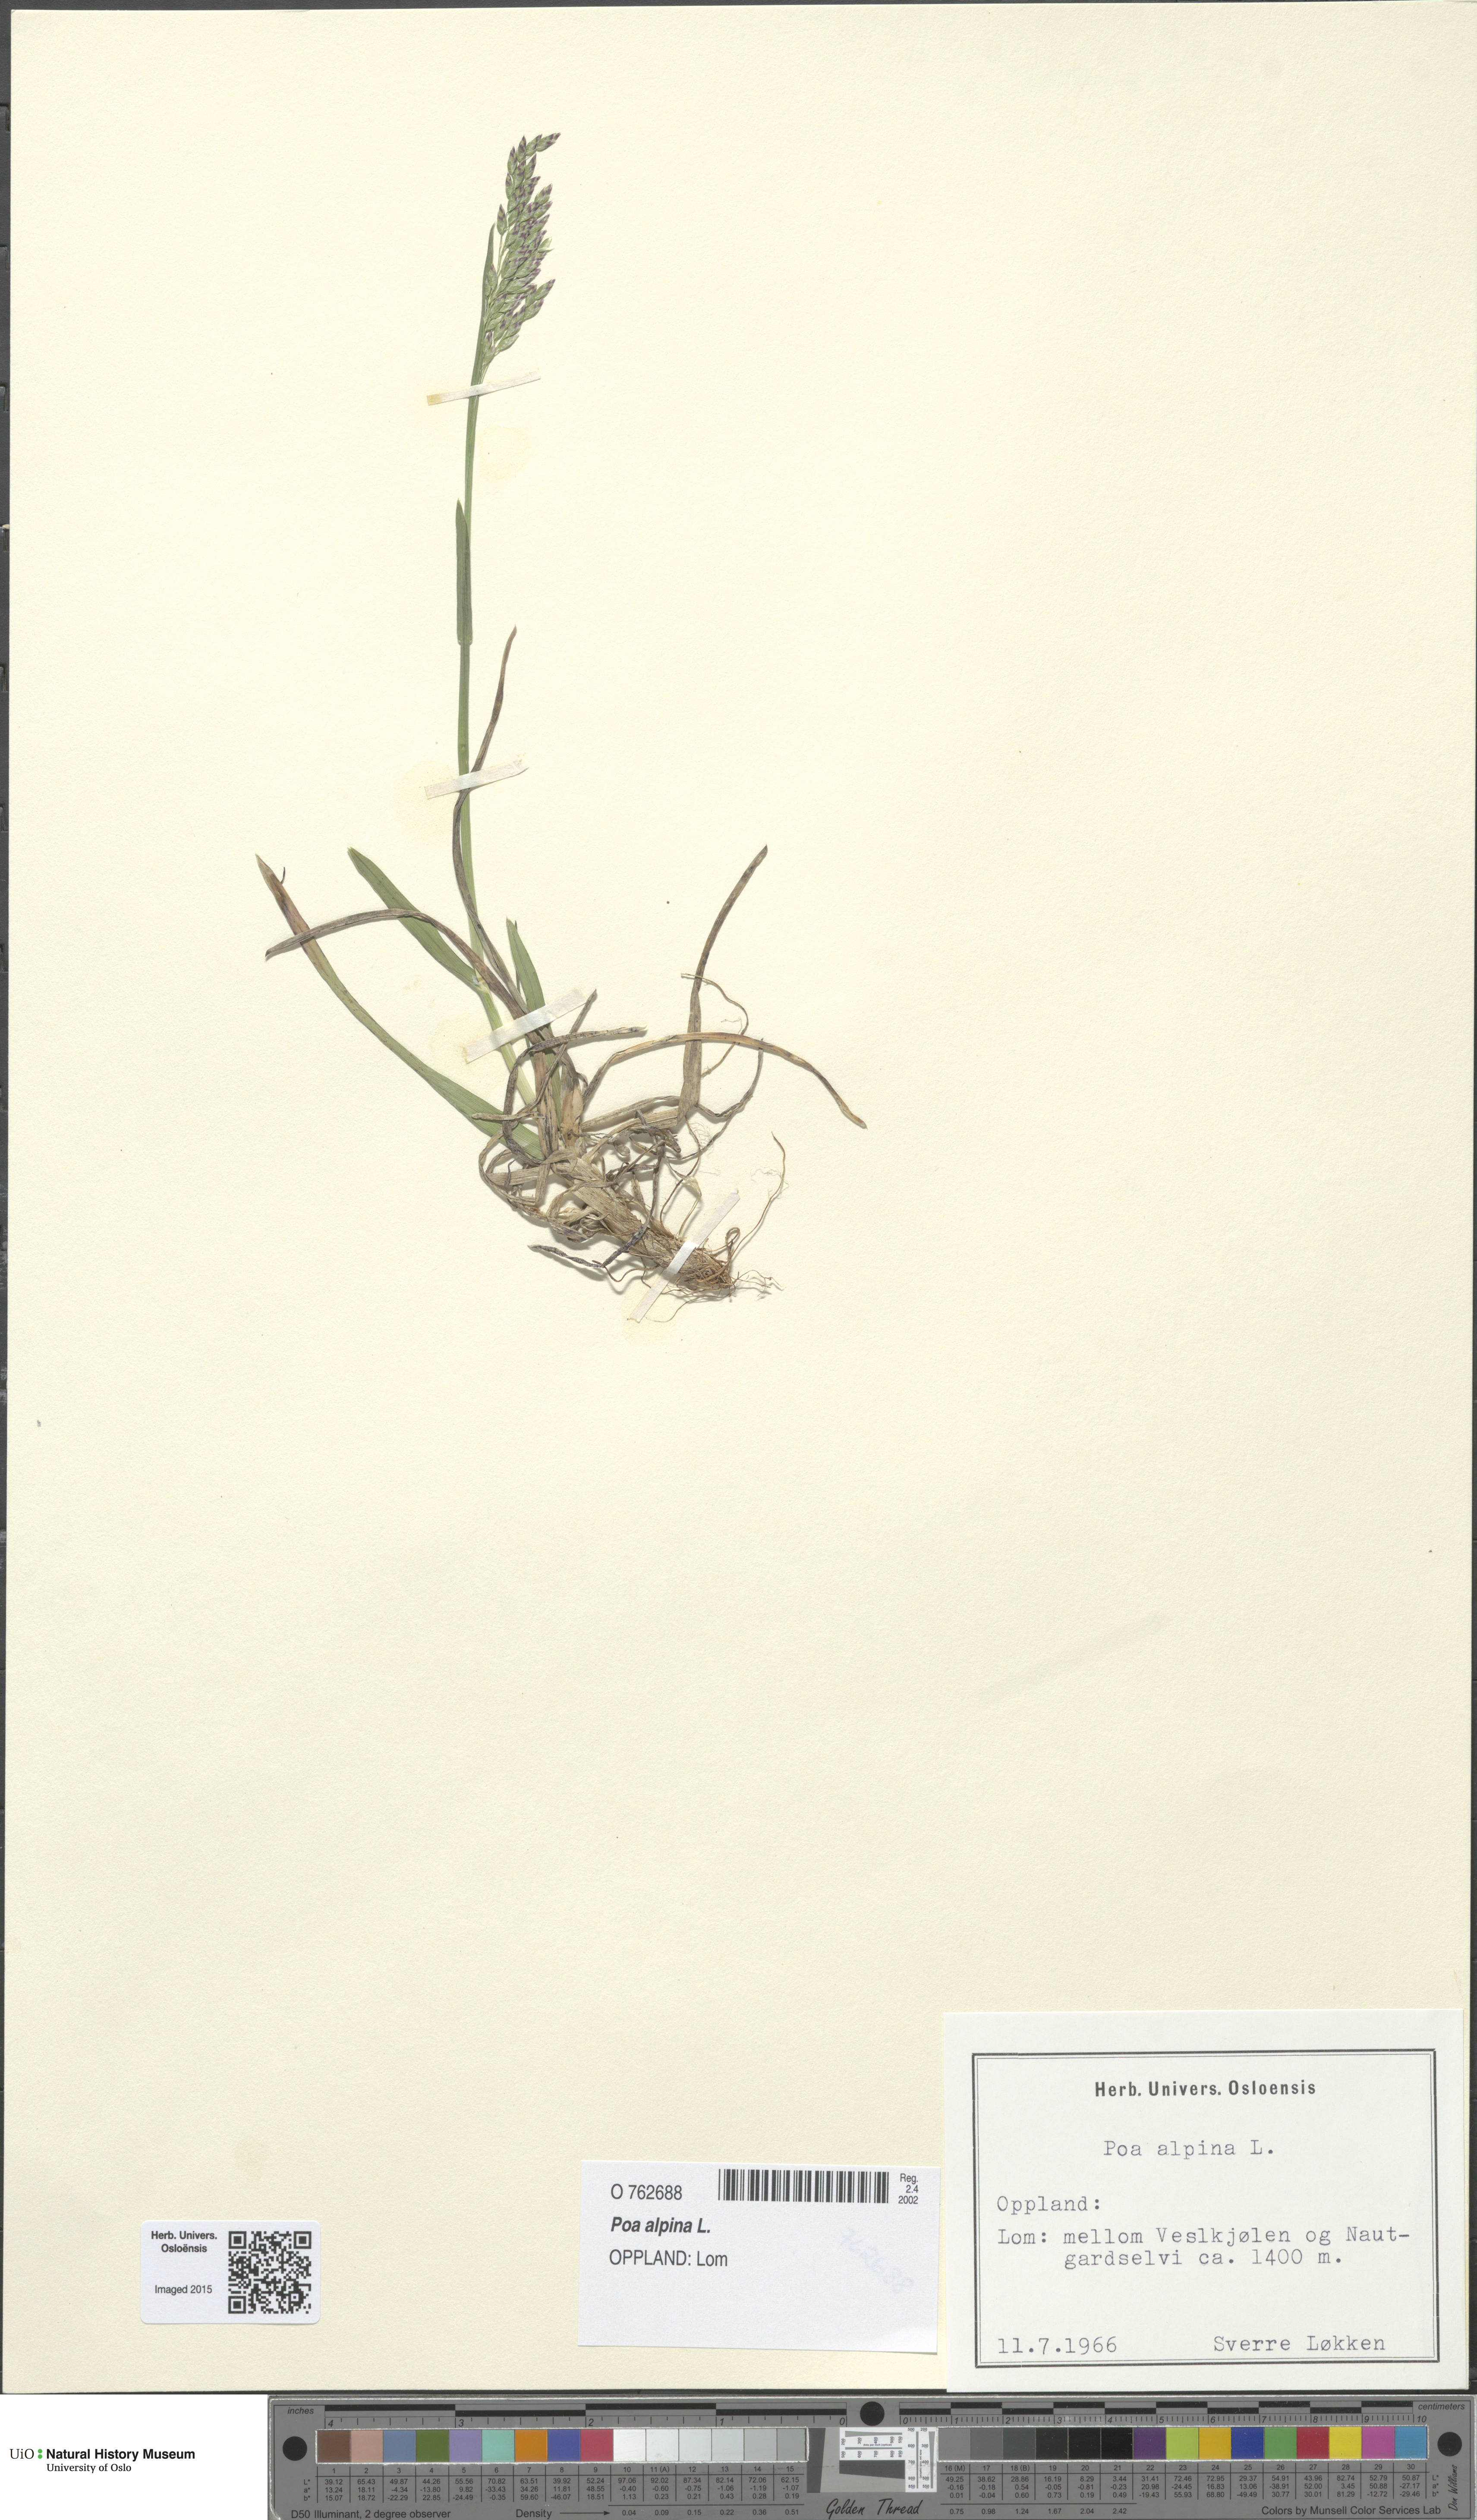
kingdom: Plantae
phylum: Tracheophyta
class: Liliopsida
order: Poales
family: Poaceae
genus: Poa
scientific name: Poa alpina
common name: Alpine bluegrass
